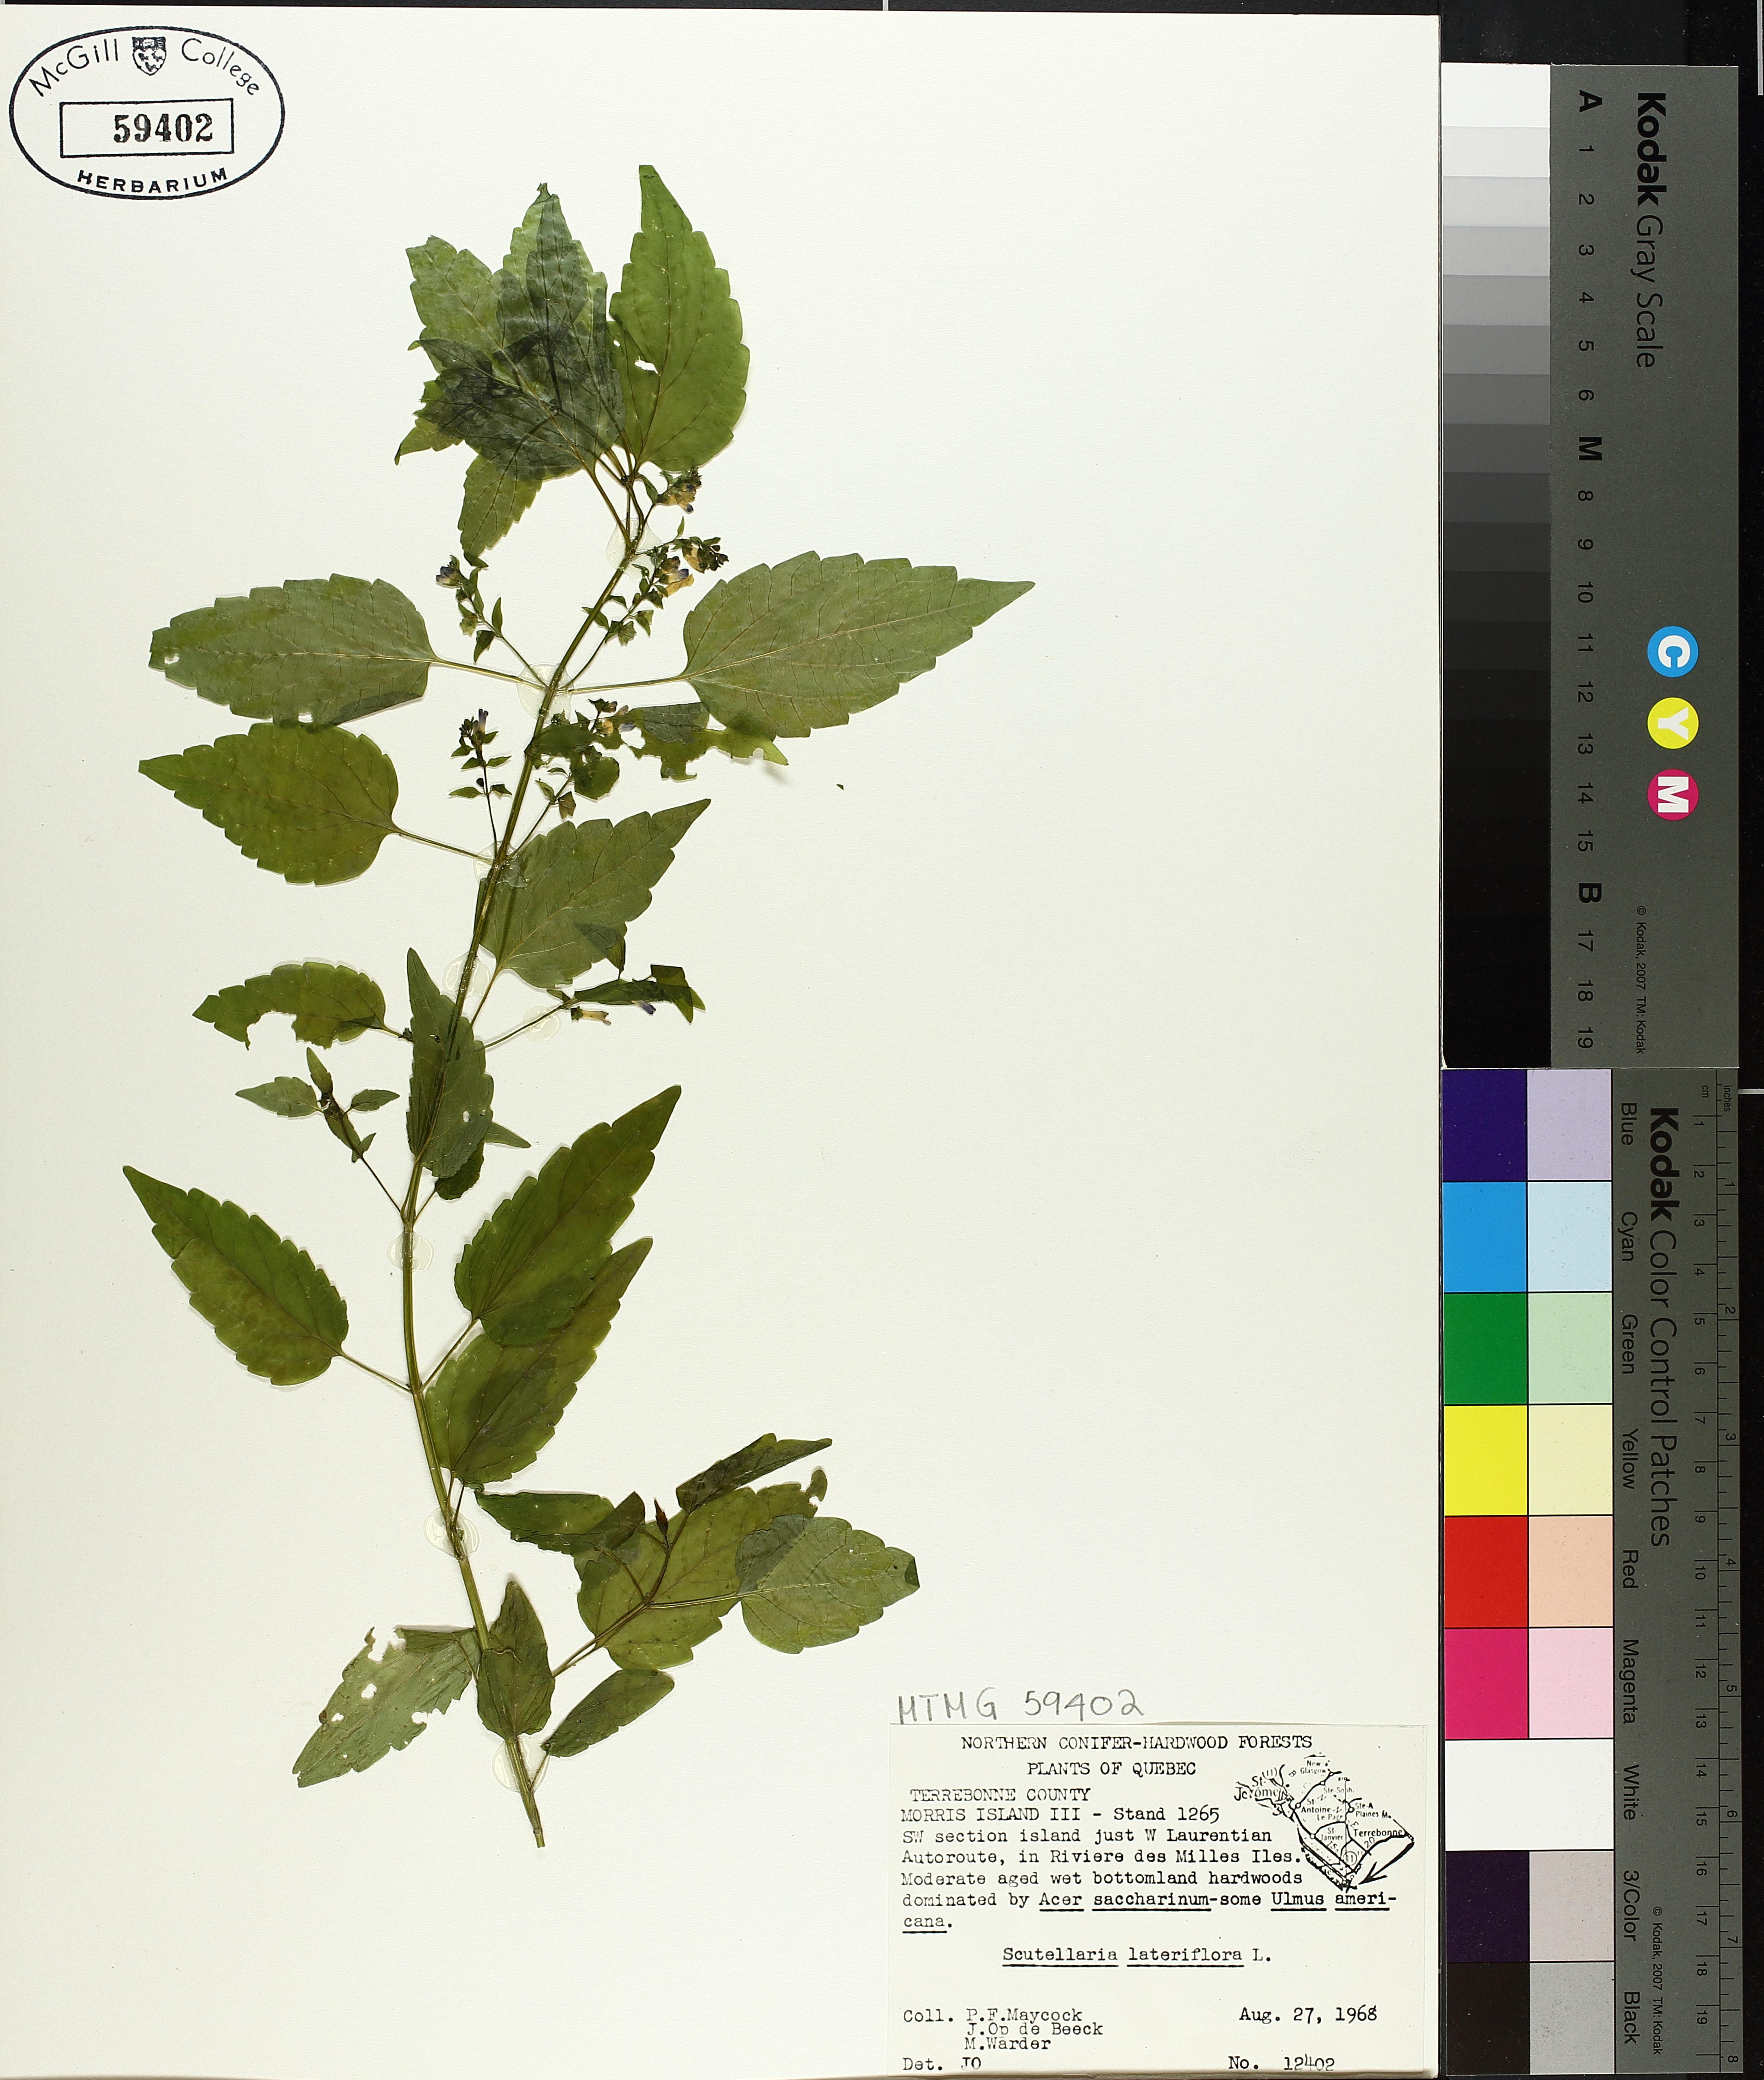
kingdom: Plantae
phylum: Tracheophyta
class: Magnoliopsida
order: Lamiales
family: Lamiaceae
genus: Scutellaria
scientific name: Scutellaria lateriflora
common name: Blue skullcap
